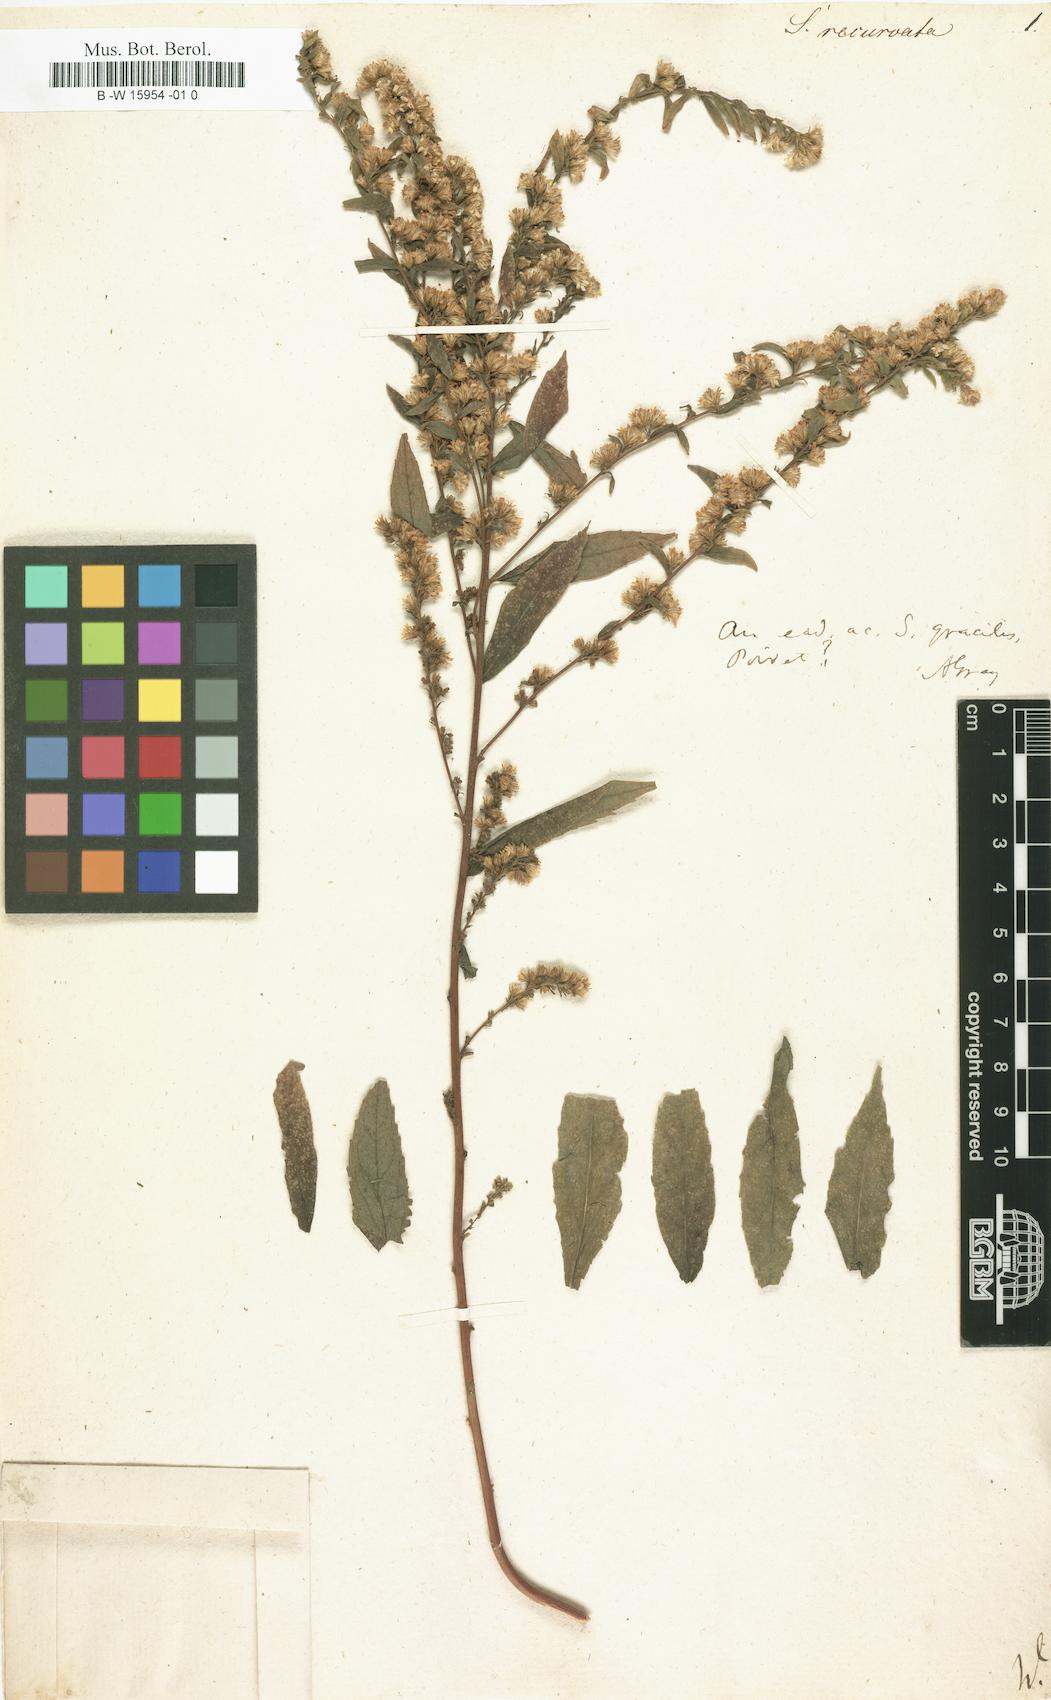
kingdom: Plantae
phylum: Tracheophyta
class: Magnoliopsida
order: Asterales
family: Asteraceae
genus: Solidago
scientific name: Solidago rugosa
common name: Rough-stemmed goldenrod
